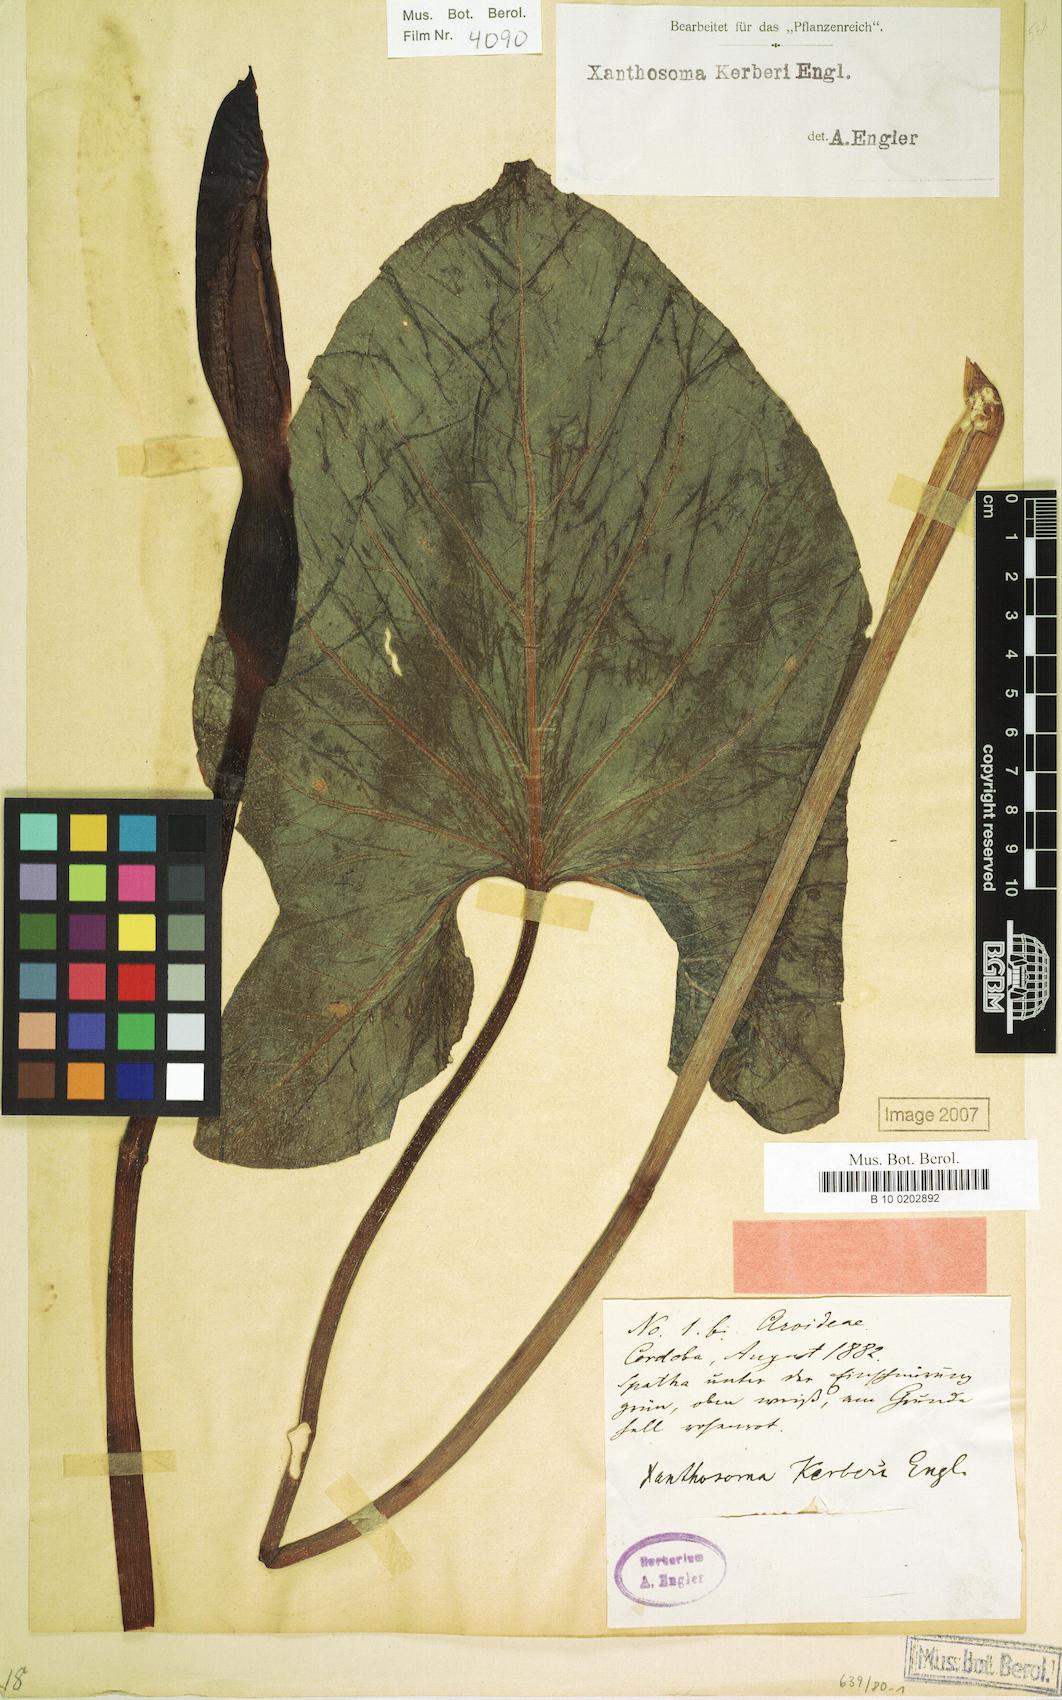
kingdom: Plantae
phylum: Tracheophyta
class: Liliopsida
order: Alismatales
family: Araceae
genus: Xanthosoma
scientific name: Xanthosoma mexicanum
